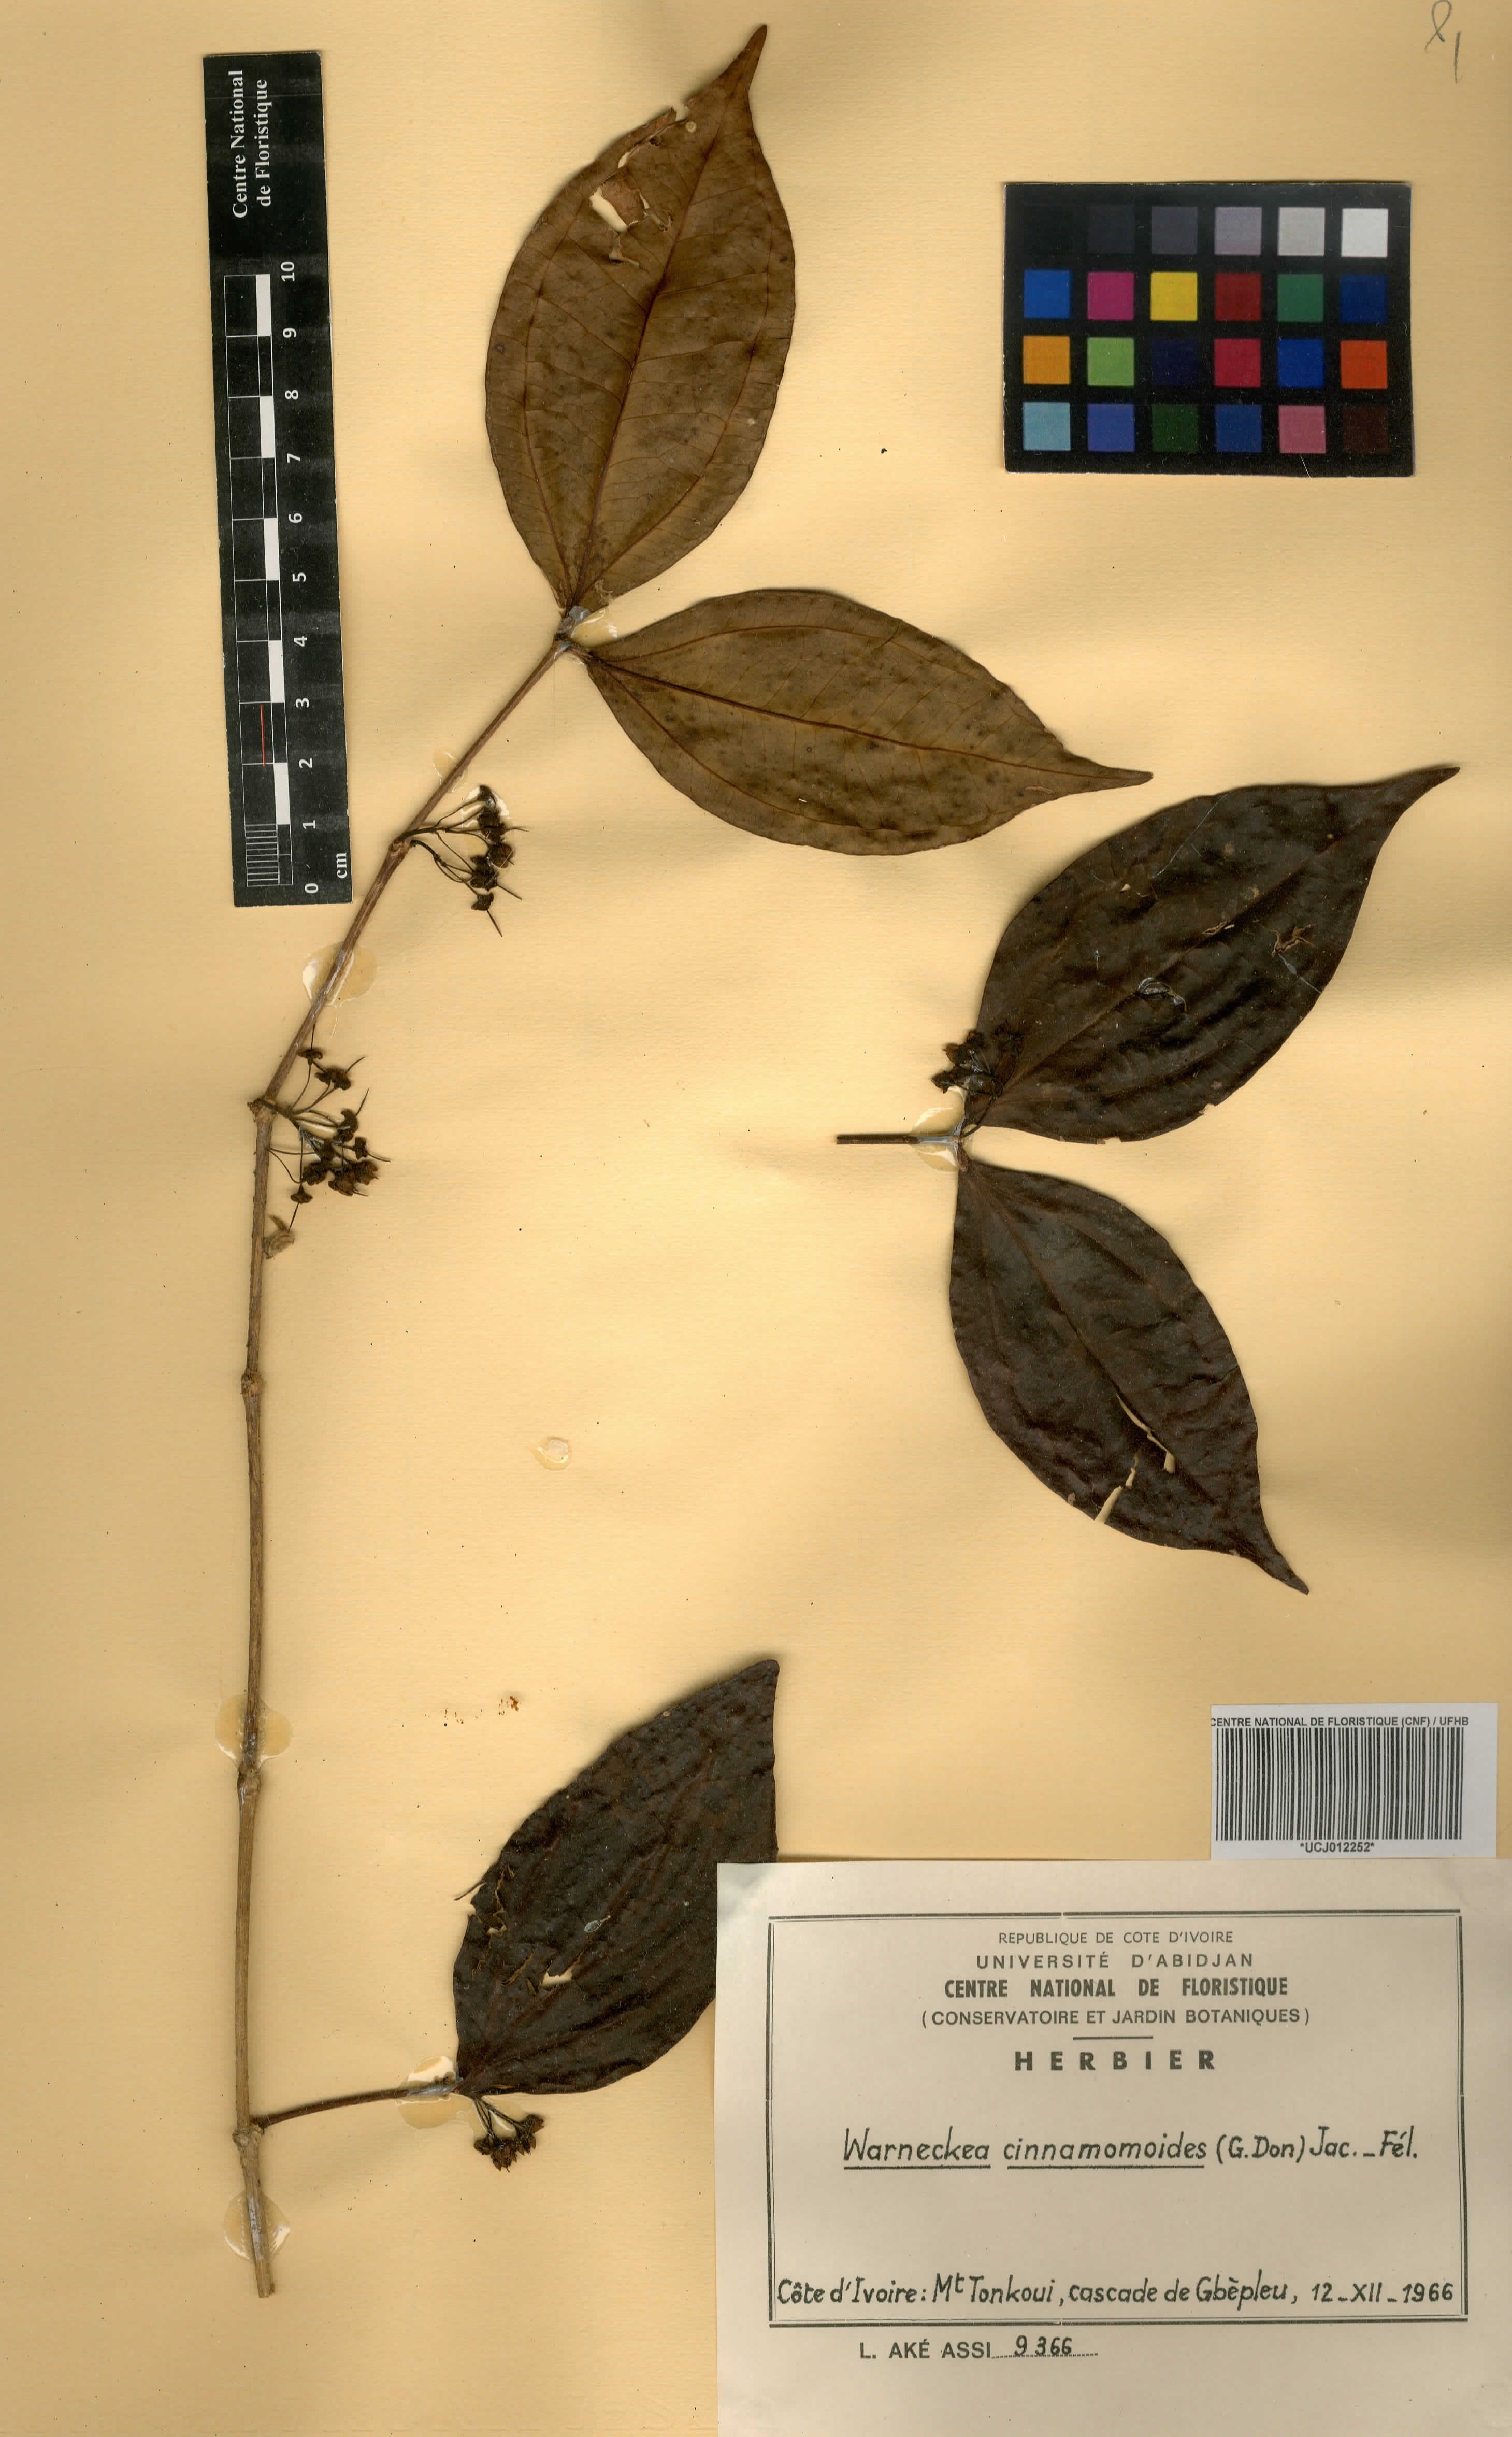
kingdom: Plantae
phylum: Tracheophyta
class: Magnoliopsida
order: Myrtales
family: Melastomataceae
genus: Warneckea
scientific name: Warneckea cinnamomoides
